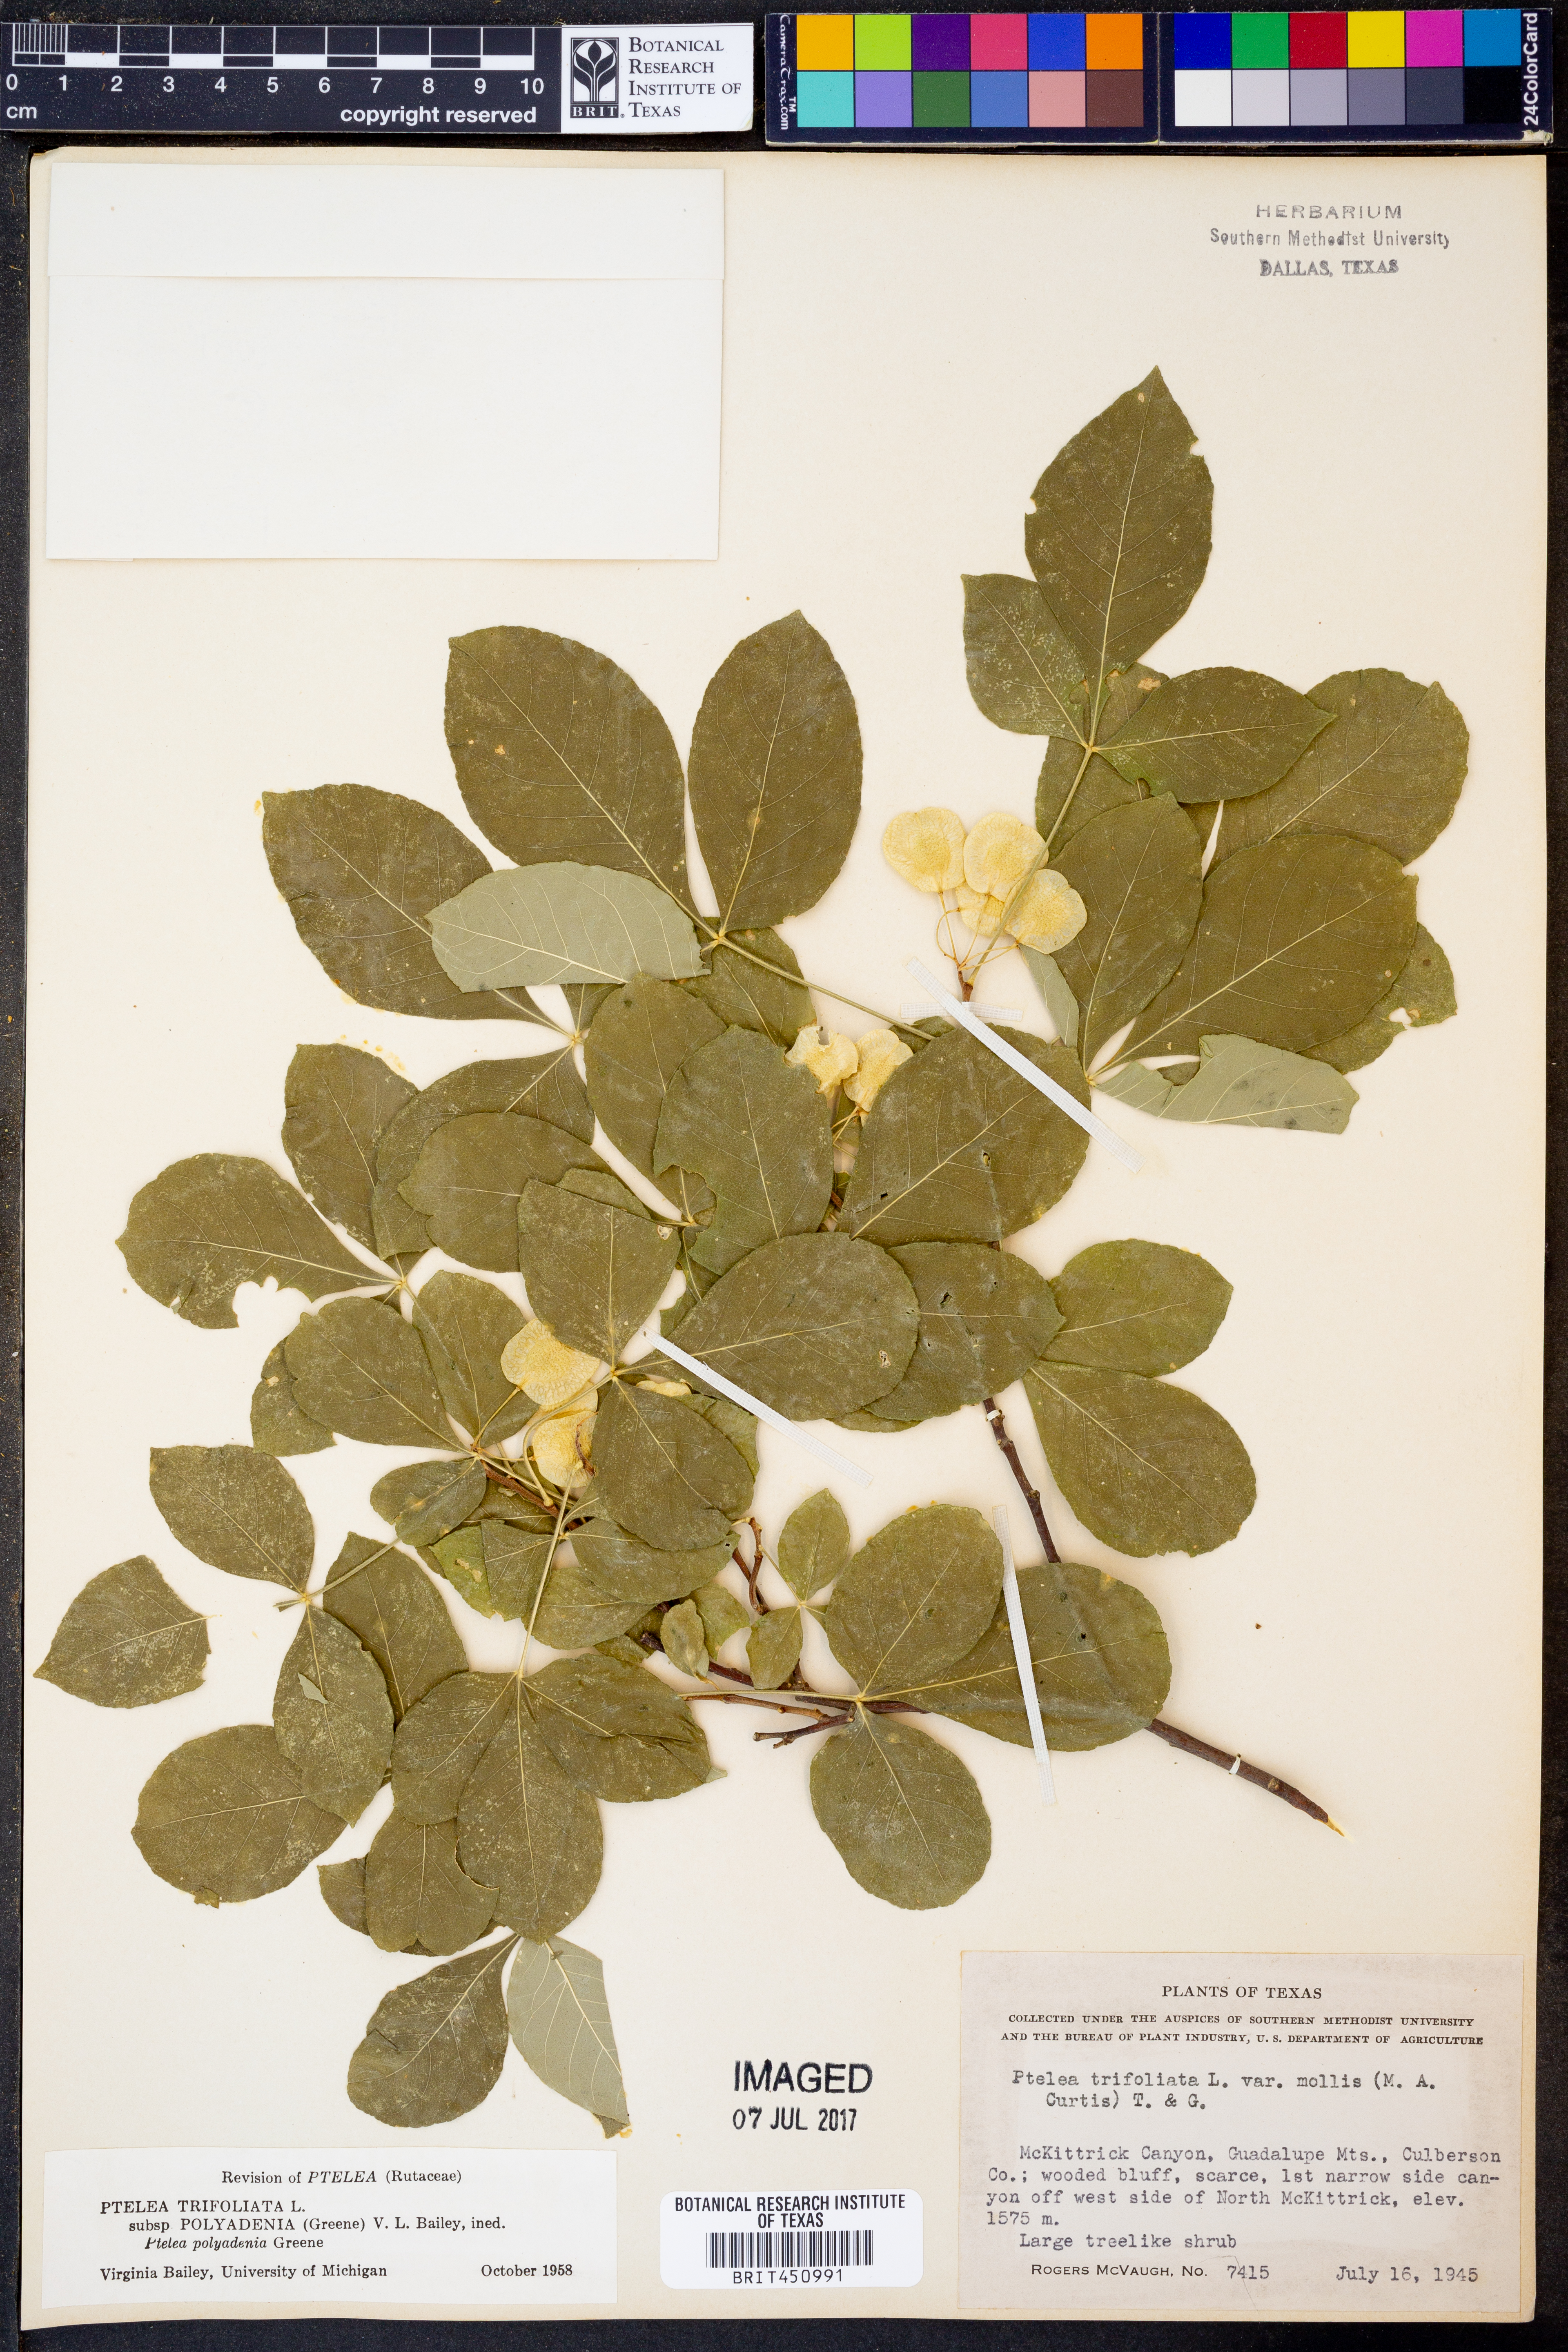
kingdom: Plantae
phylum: Tracheophyta
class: Magnoliopsida
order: Sapindales
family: Rutaceae
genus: Ptelea
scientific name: Ptelea trifoliata
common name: Common hop-tree
